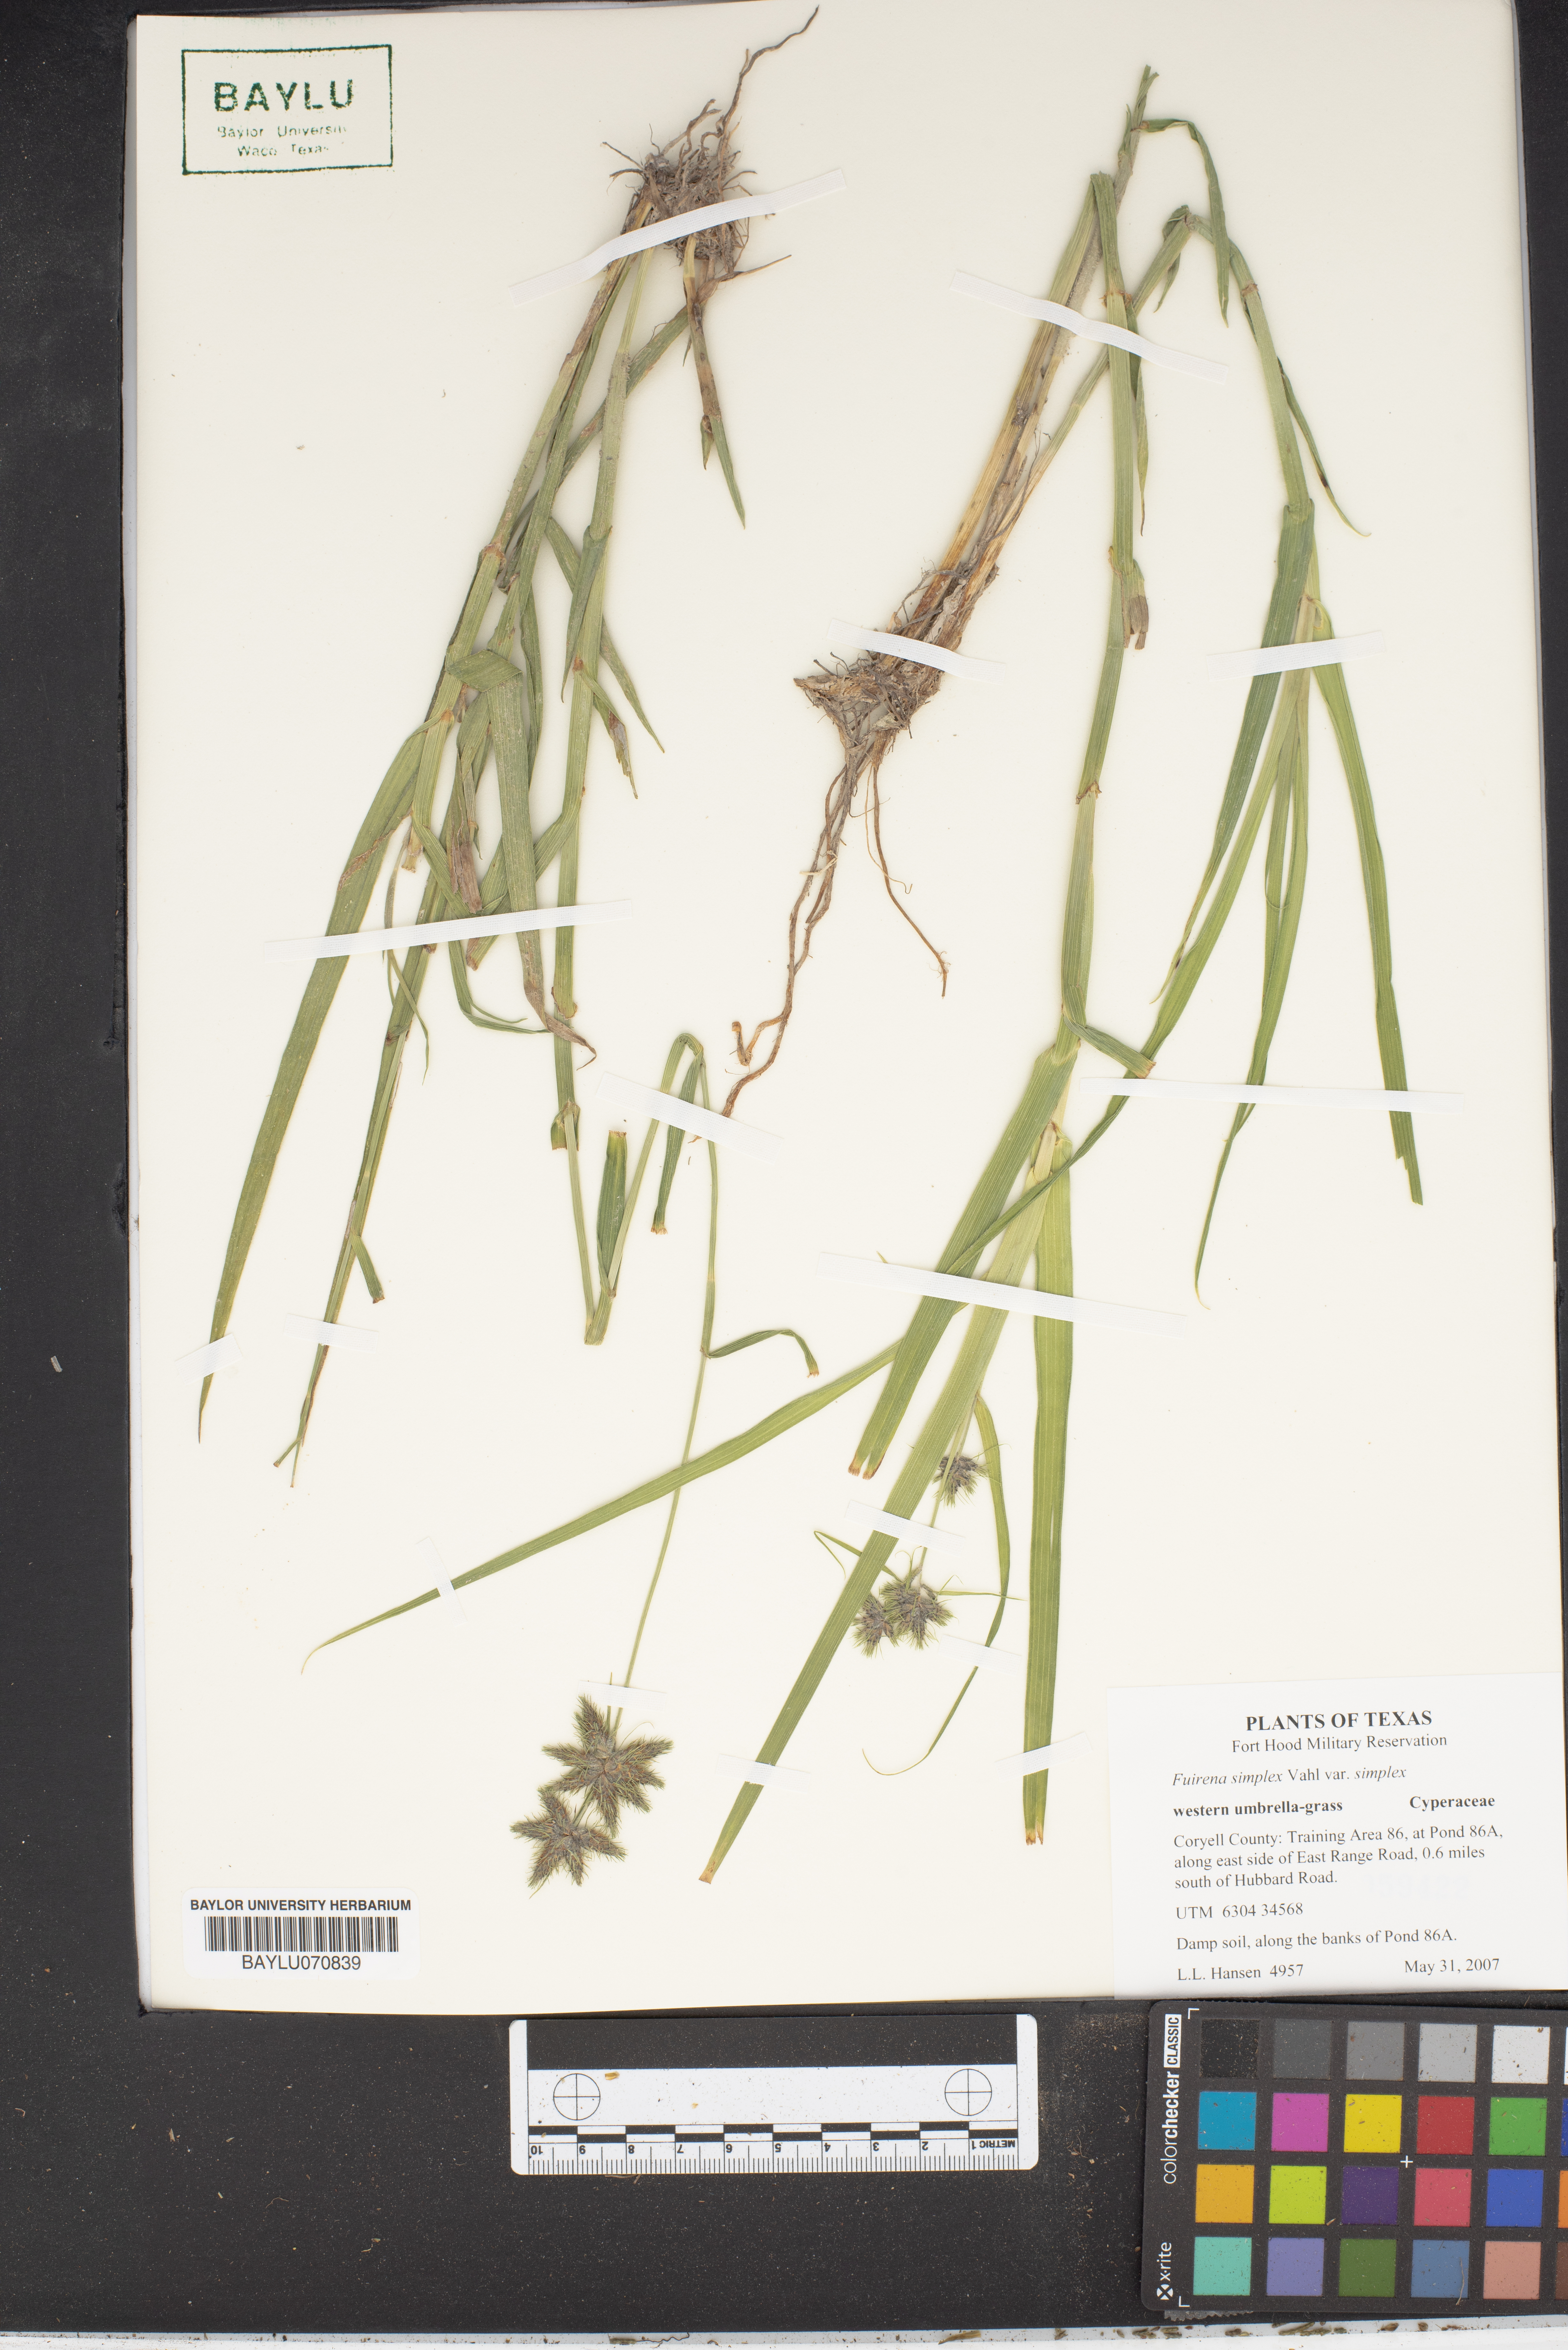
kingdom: Plantae
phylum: Tracheophyta
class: Liliopsida
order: Poales
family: Cyperaceae
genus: Fuirena
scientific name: Fuirena simplex
